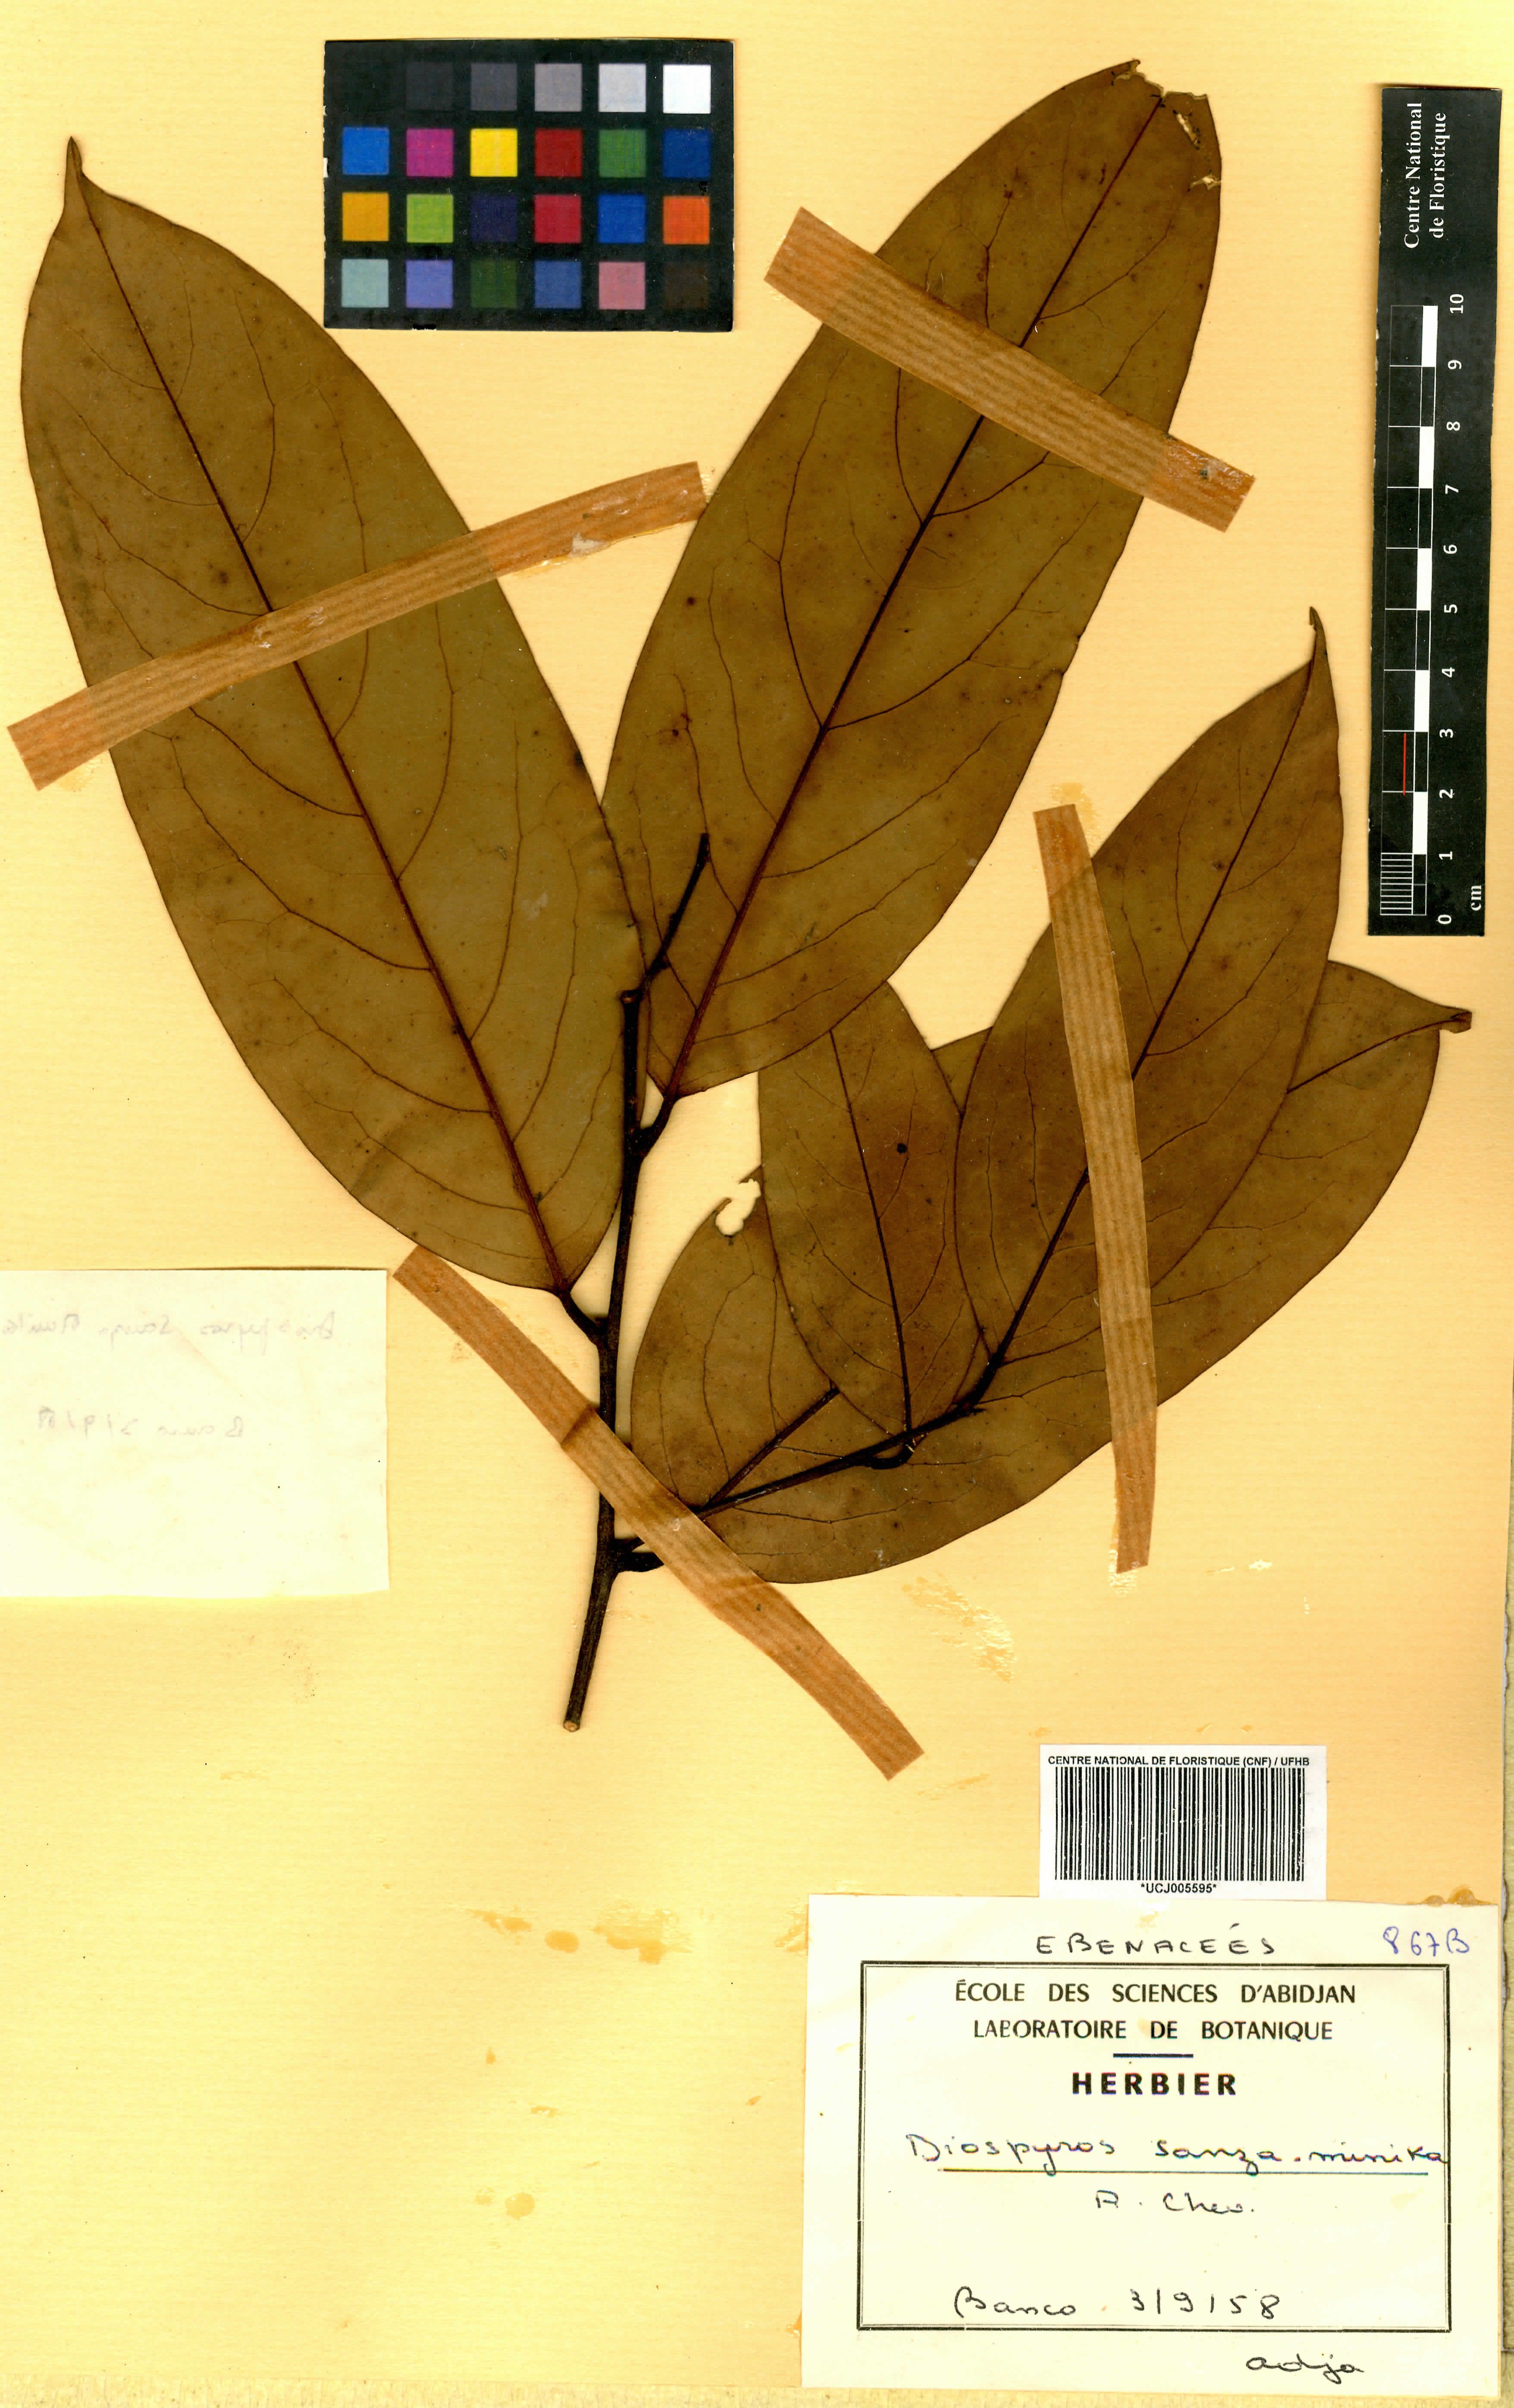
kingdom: Plantae
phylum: Tracheophyta
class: Magnoliopsida
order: Ericales
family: Ebenaceae
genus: Diospyros
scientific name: Diospyros sanza-minika
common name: Flint bark
